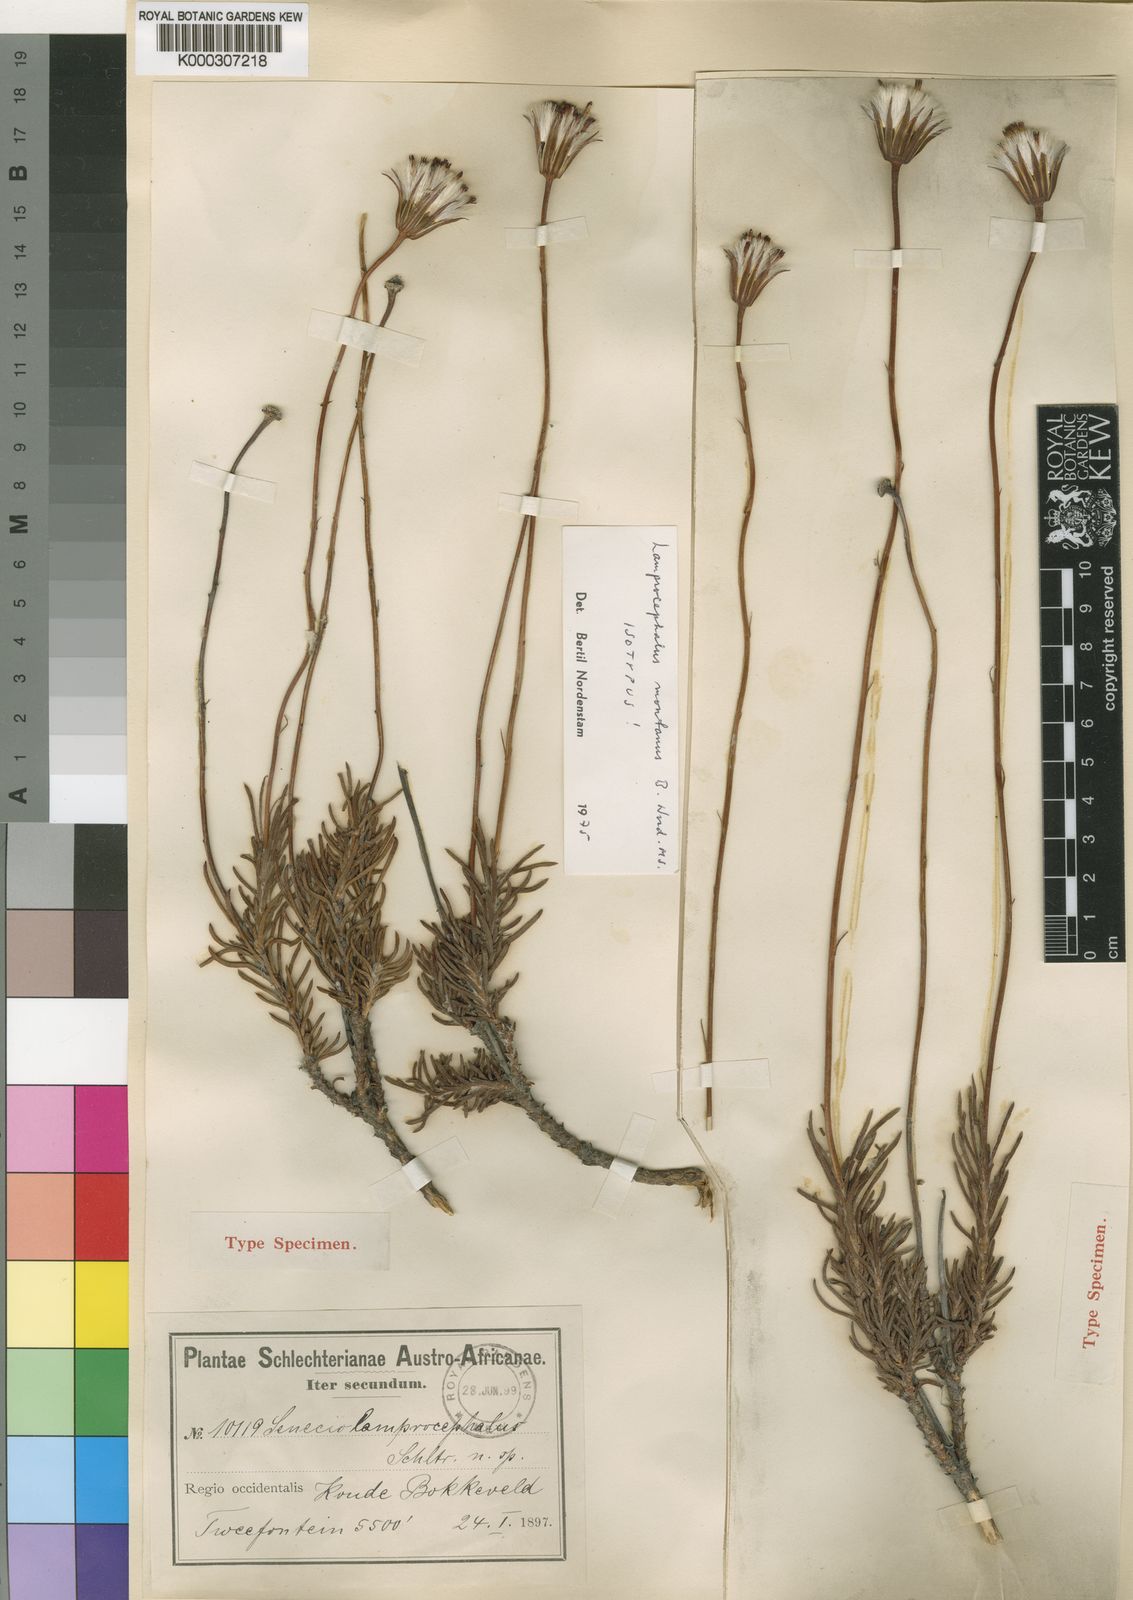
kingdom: Plantae
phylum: Tracheophyta
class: Magnoliopsida
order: Asterales
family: Asteraceae
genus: Lamprocephalus
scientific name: Lamprocephalus montanus
